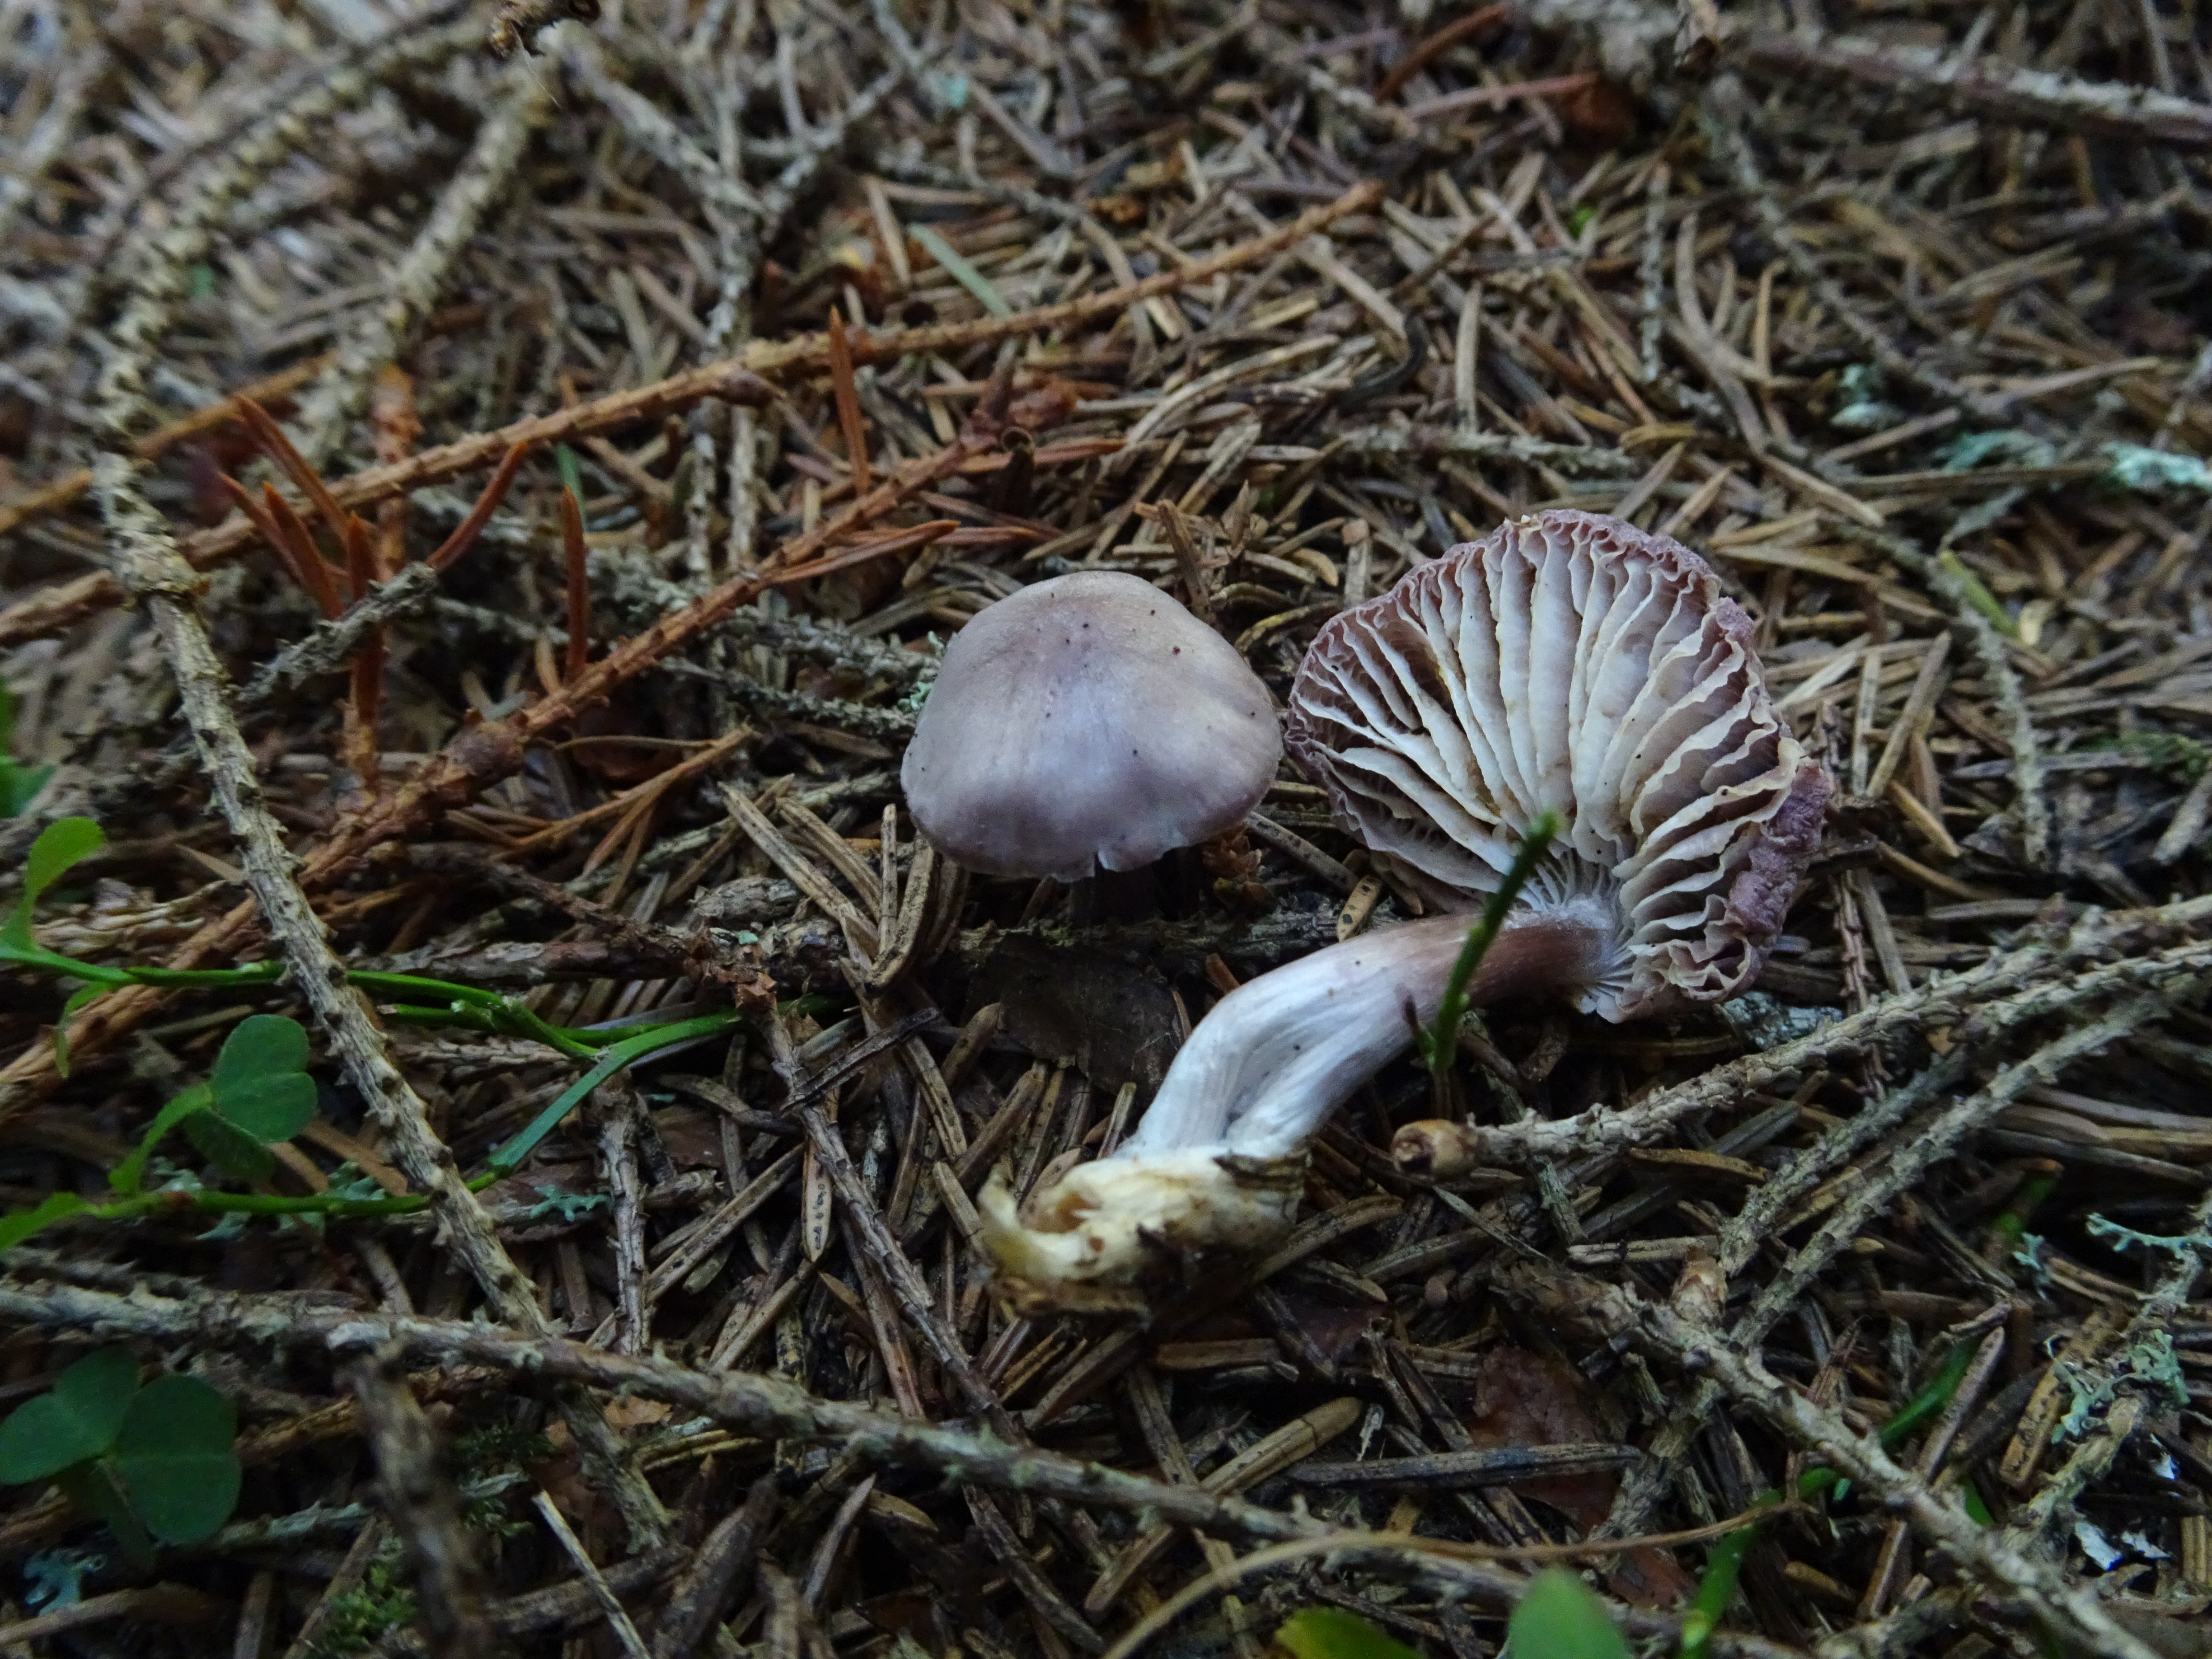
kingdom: Fungi
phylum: Basidiomycota
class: Agaricomycetes
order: Agaricales
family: Mycenaceae
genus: Mycena
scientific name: Mycena pura
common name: Lilac bonnet
